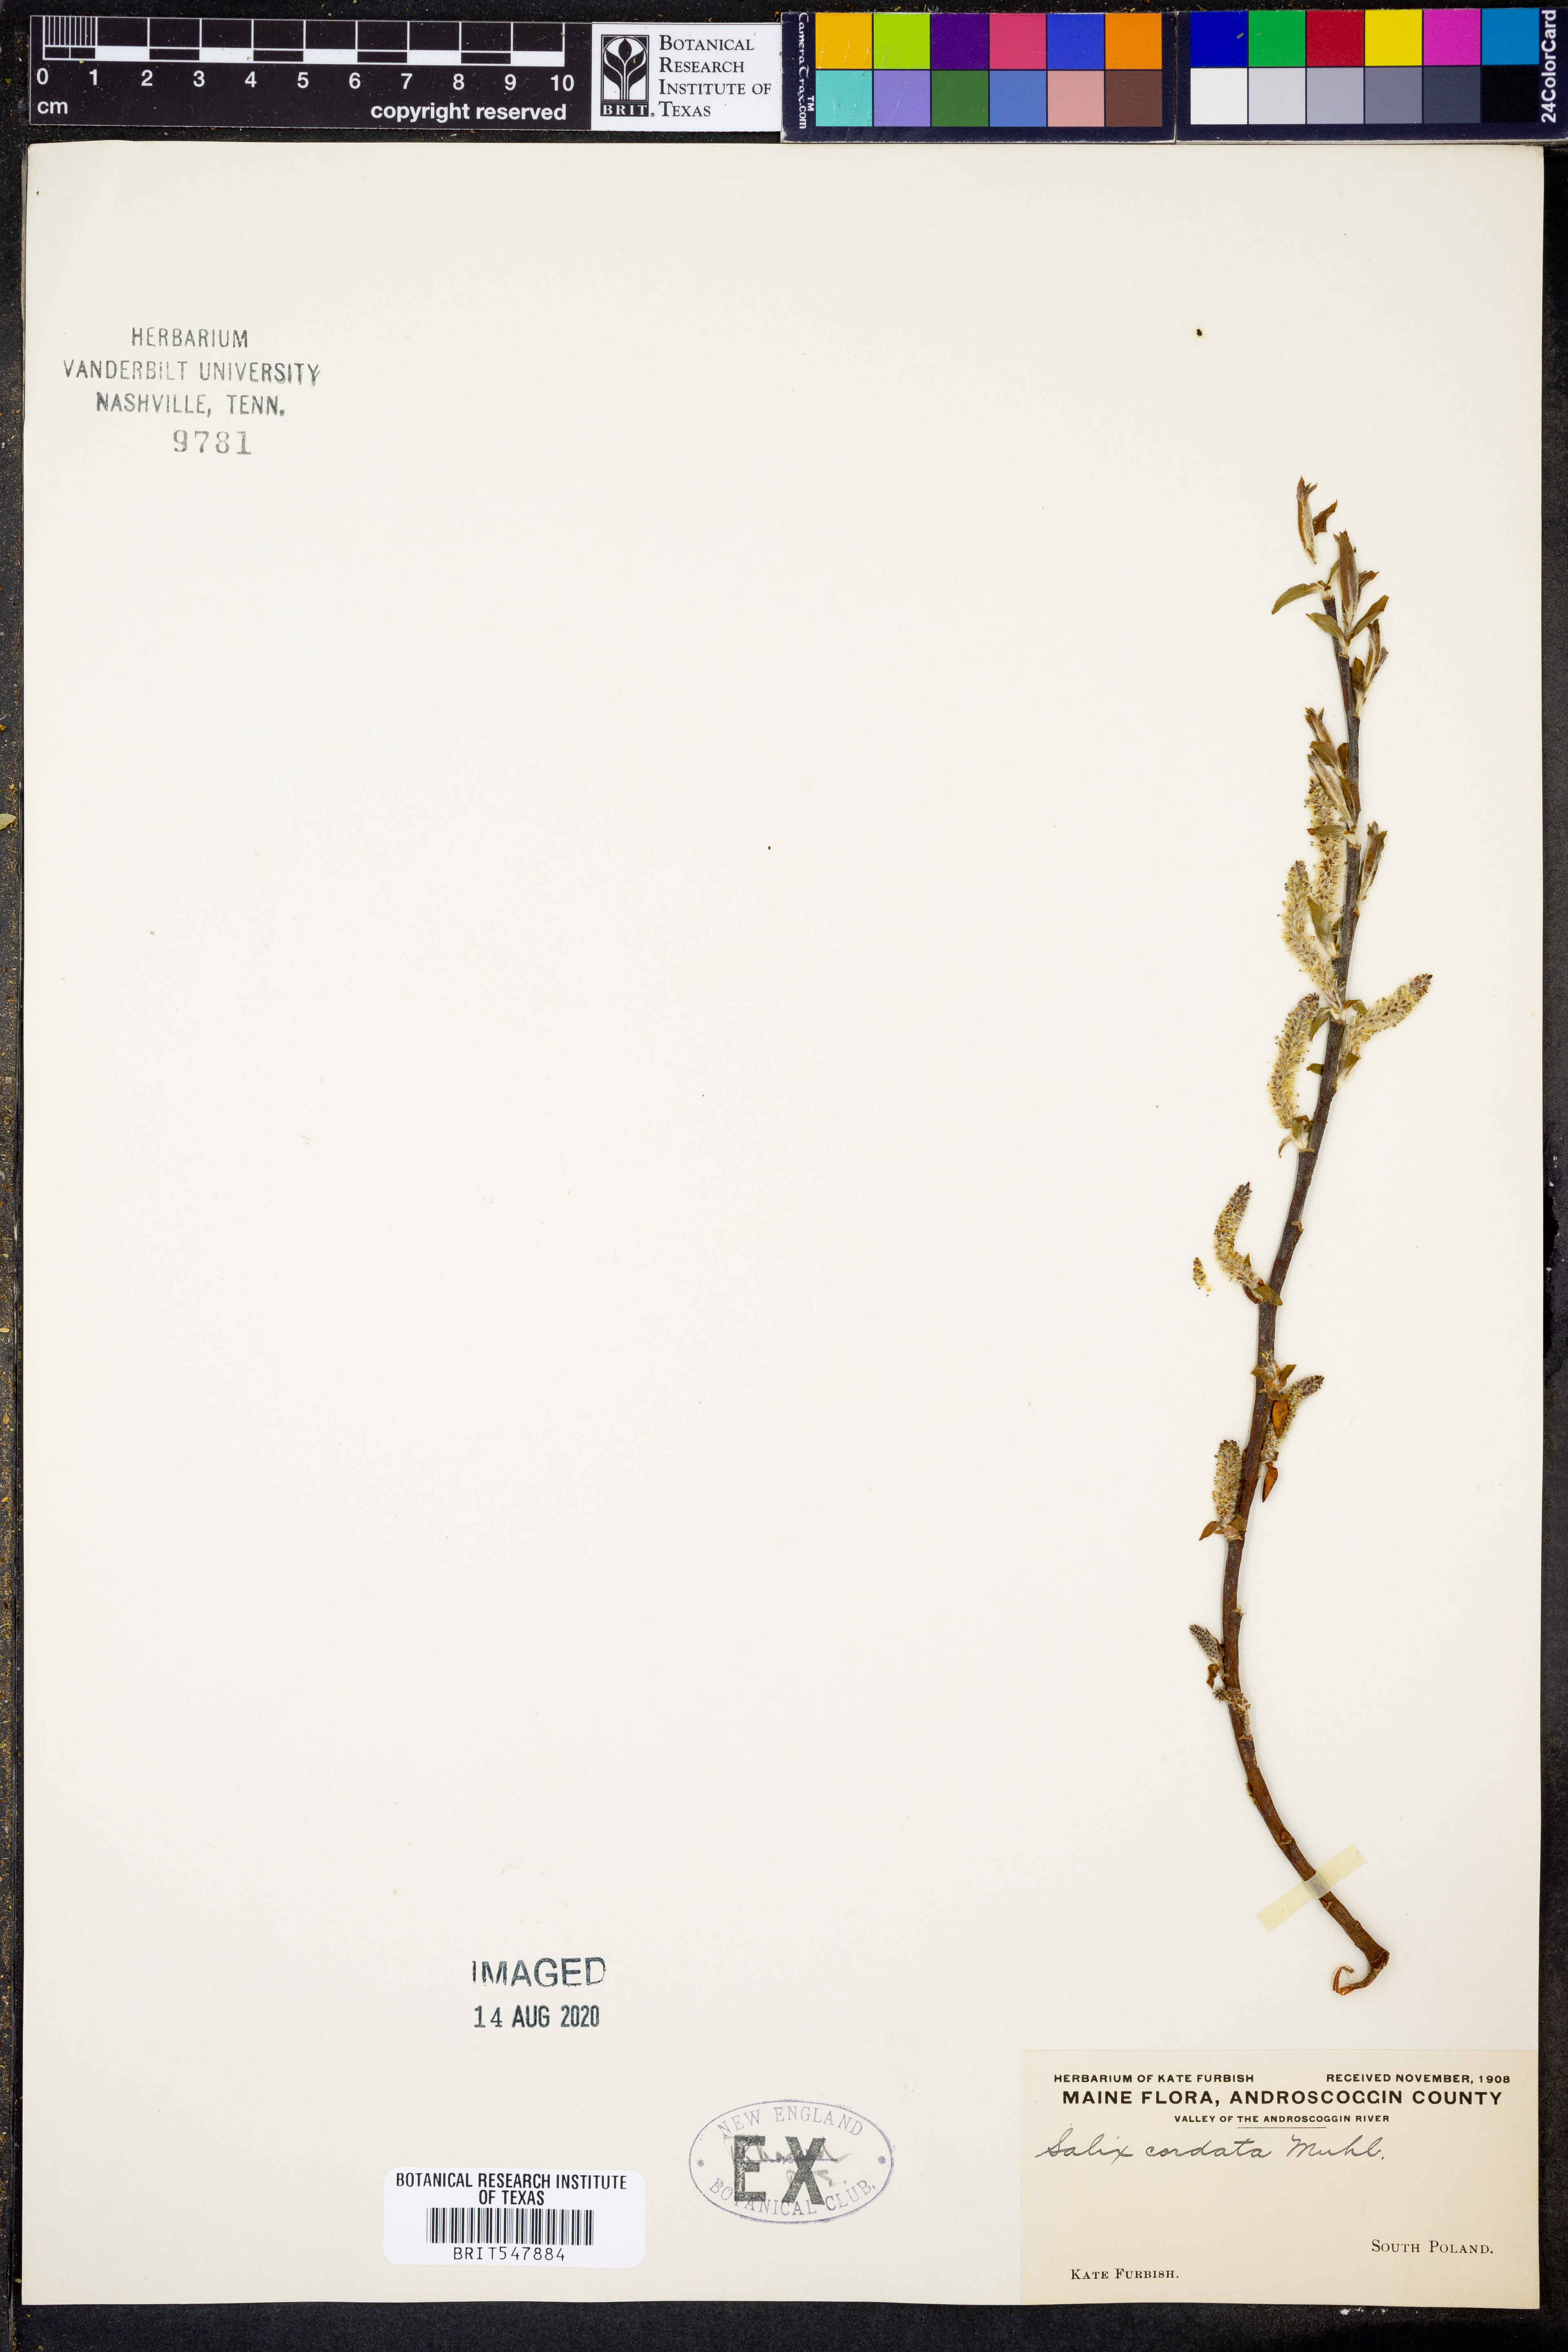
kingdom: Plantae
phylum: Tracheophyta
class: Magnoliopsida
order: Malpighiales
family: Salicaceae
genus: Salix
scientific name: Salix cordata
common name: Heart-leaf willow
